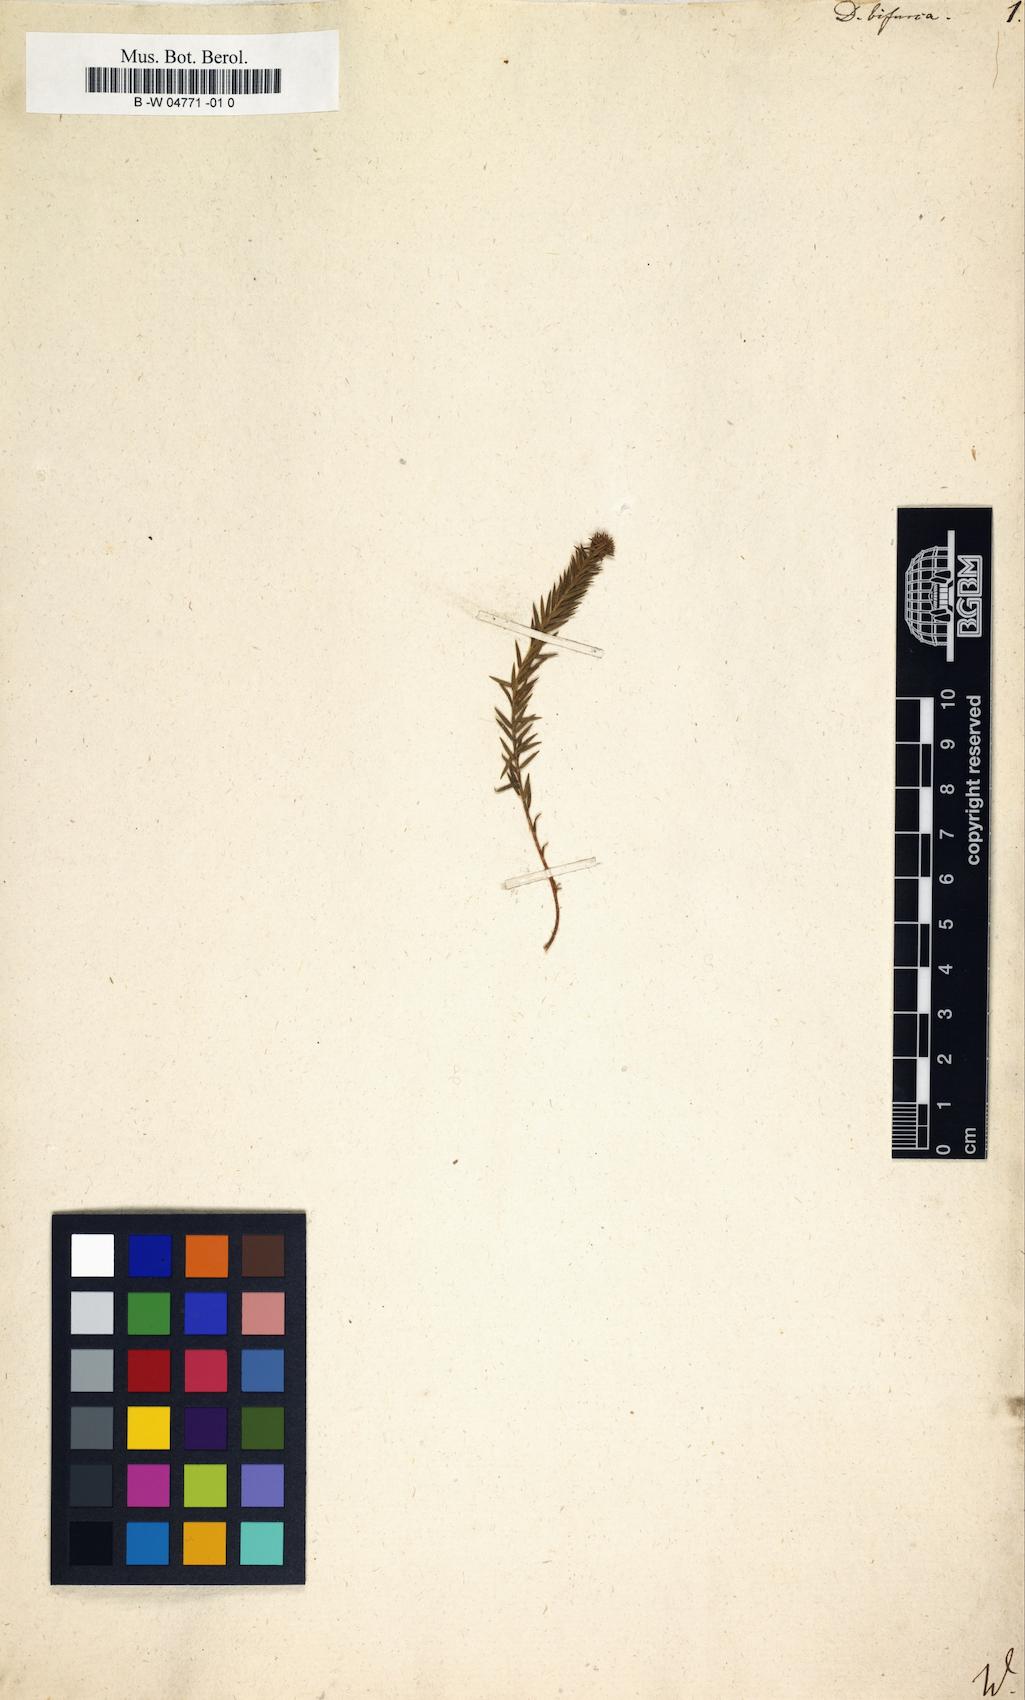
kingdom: Plantae
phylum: Tracheophyta
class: Magnoliopsida
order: Sapindales
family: Rutaceae
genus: Agathosma
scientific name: Agathosma bisulca
